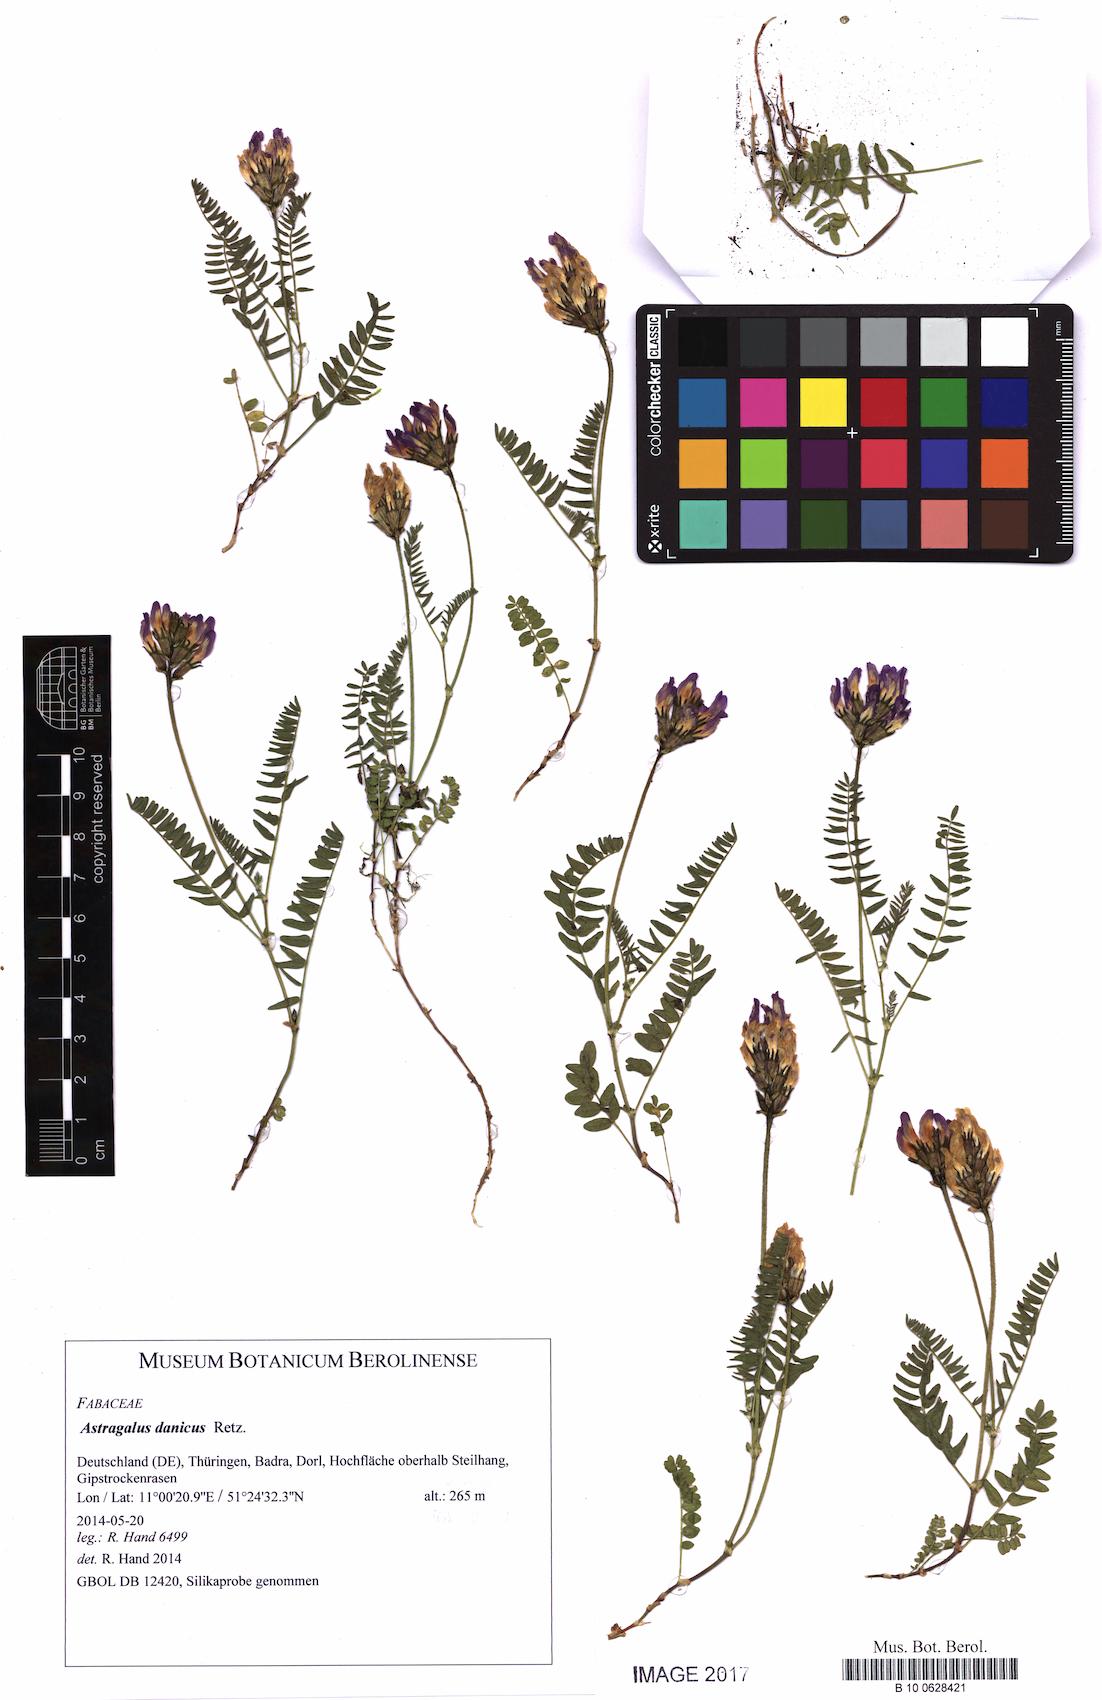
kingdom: Plantae
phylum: Tracheophyta
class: Magnoliopsida
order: Fabales
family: Fabaceae
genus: Astragalus
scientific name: Astragalus danicus
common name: Purple milk-vetch
